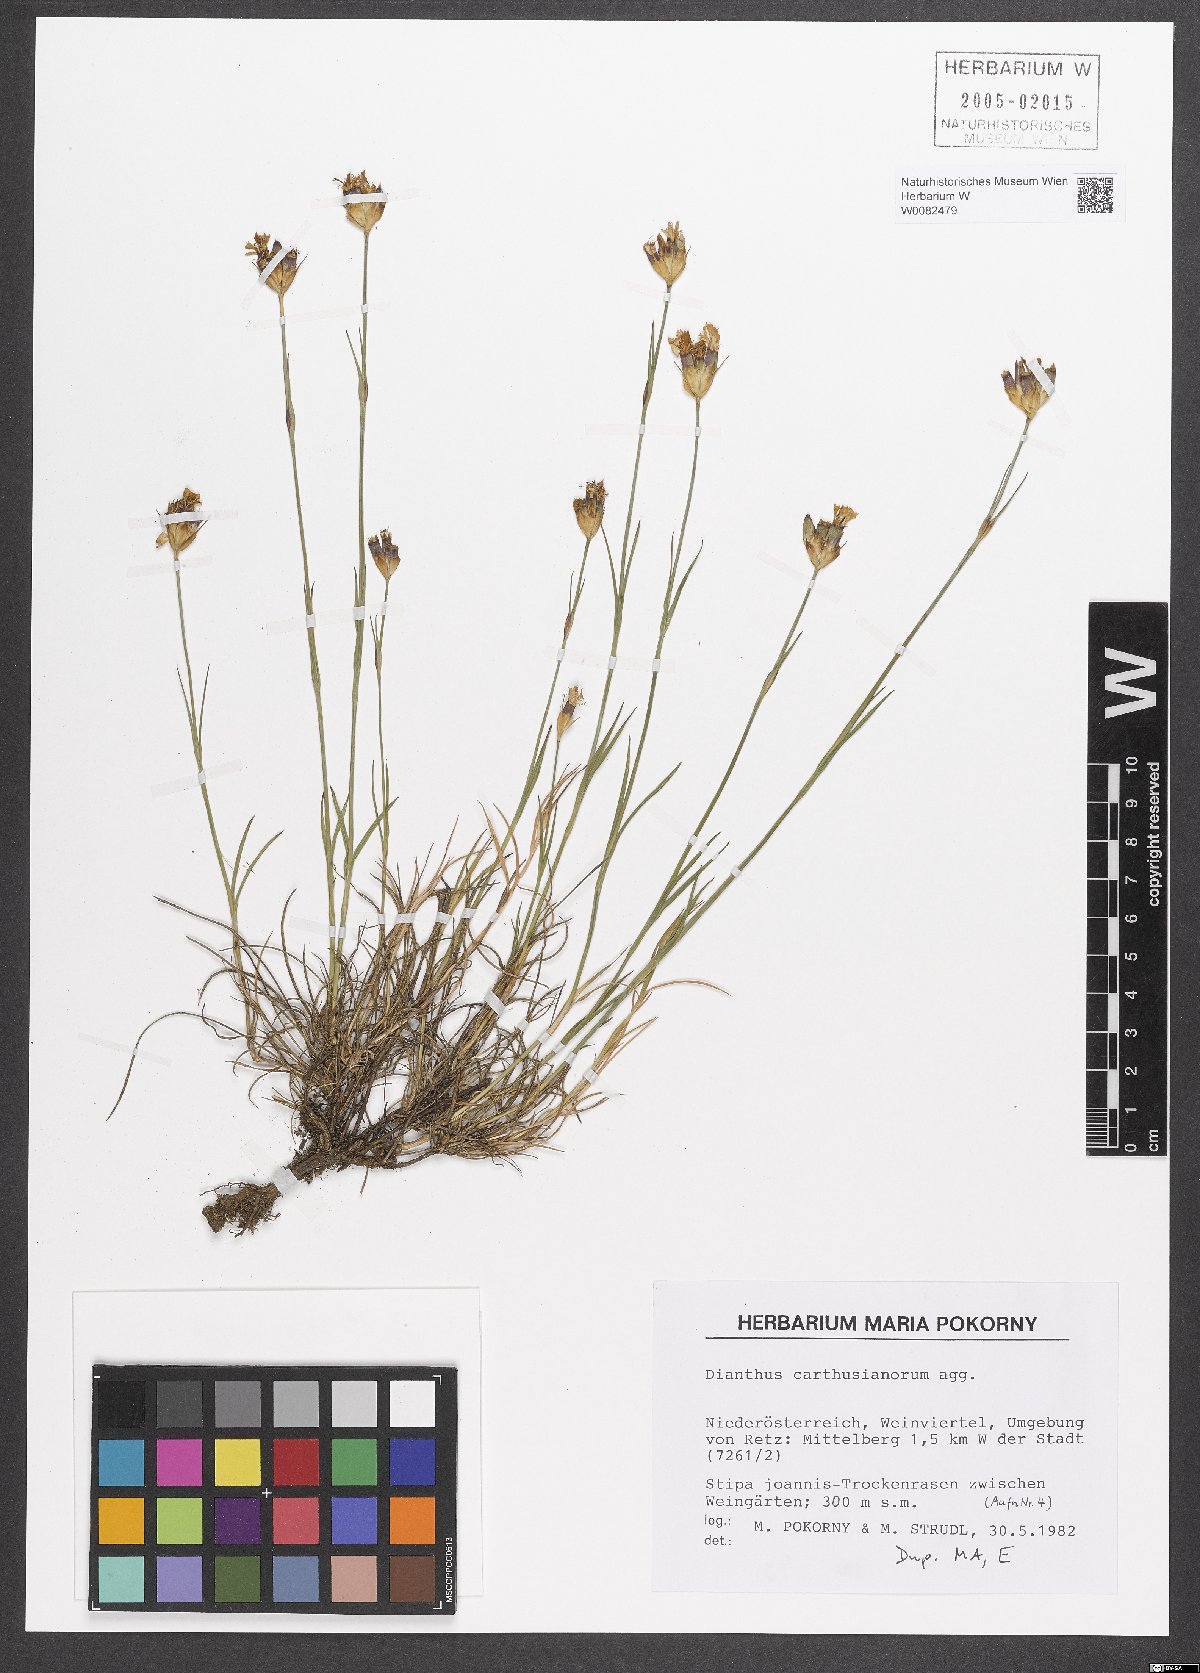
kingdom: Plantae
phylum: Tracheophyta
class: Magnoliopsida
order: Caryophyllales
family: Caryophyllaceae
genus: Dianthus
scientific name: Dianthus carthusianorum
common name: Carthusian pink
